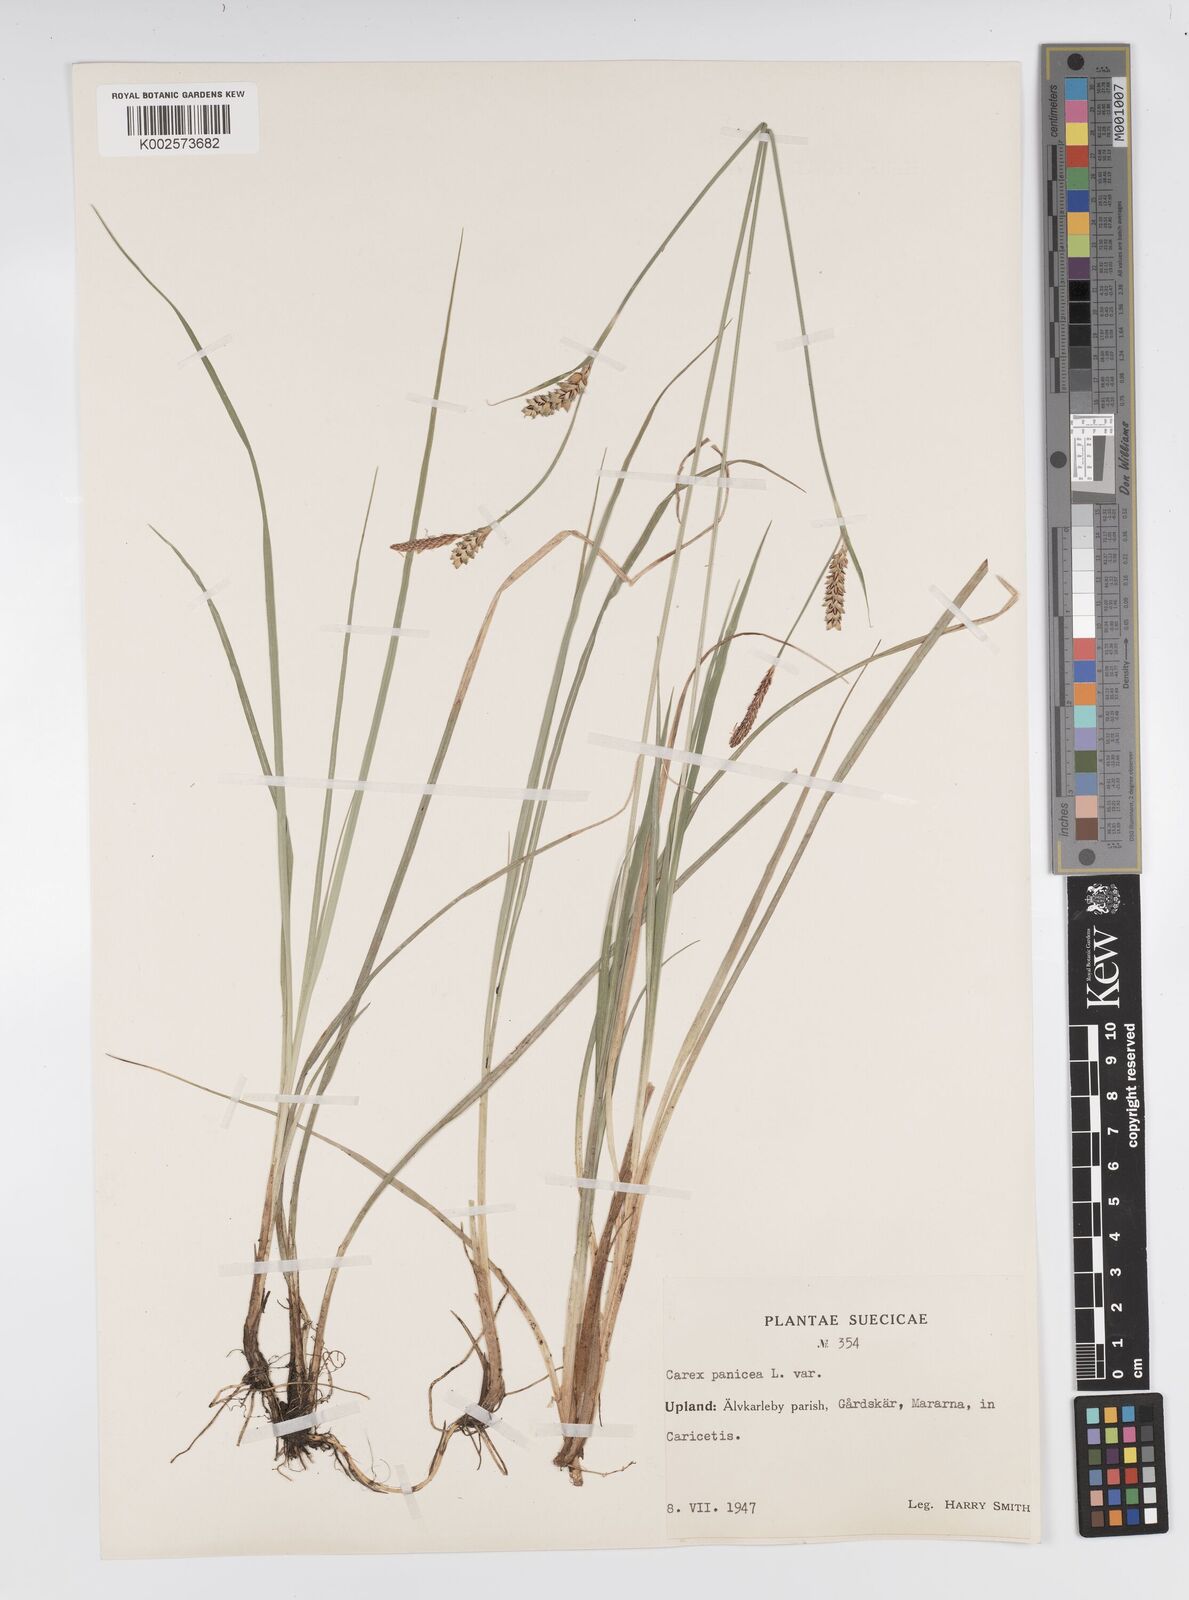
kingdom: Plantae
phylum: Tracheophyta
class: Liliopsida
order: Poales
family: Cyperaceae
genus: Carex
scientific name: Carex panicea
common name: Carnation sedge
